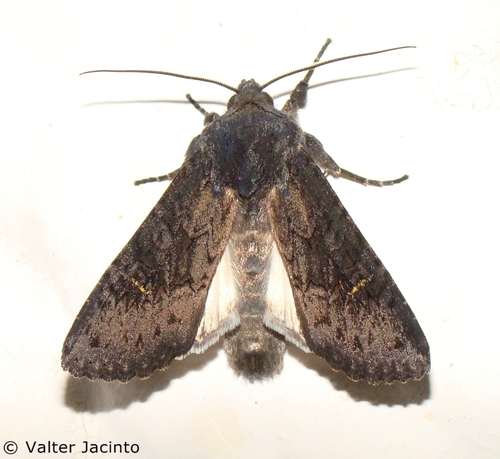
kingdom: Animalia
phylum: Arthropoda
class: Insecta
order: Lepidoptera
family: Noctuidae
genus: Aporophyla
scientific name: Aporophyla nigra
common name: Black rustic
